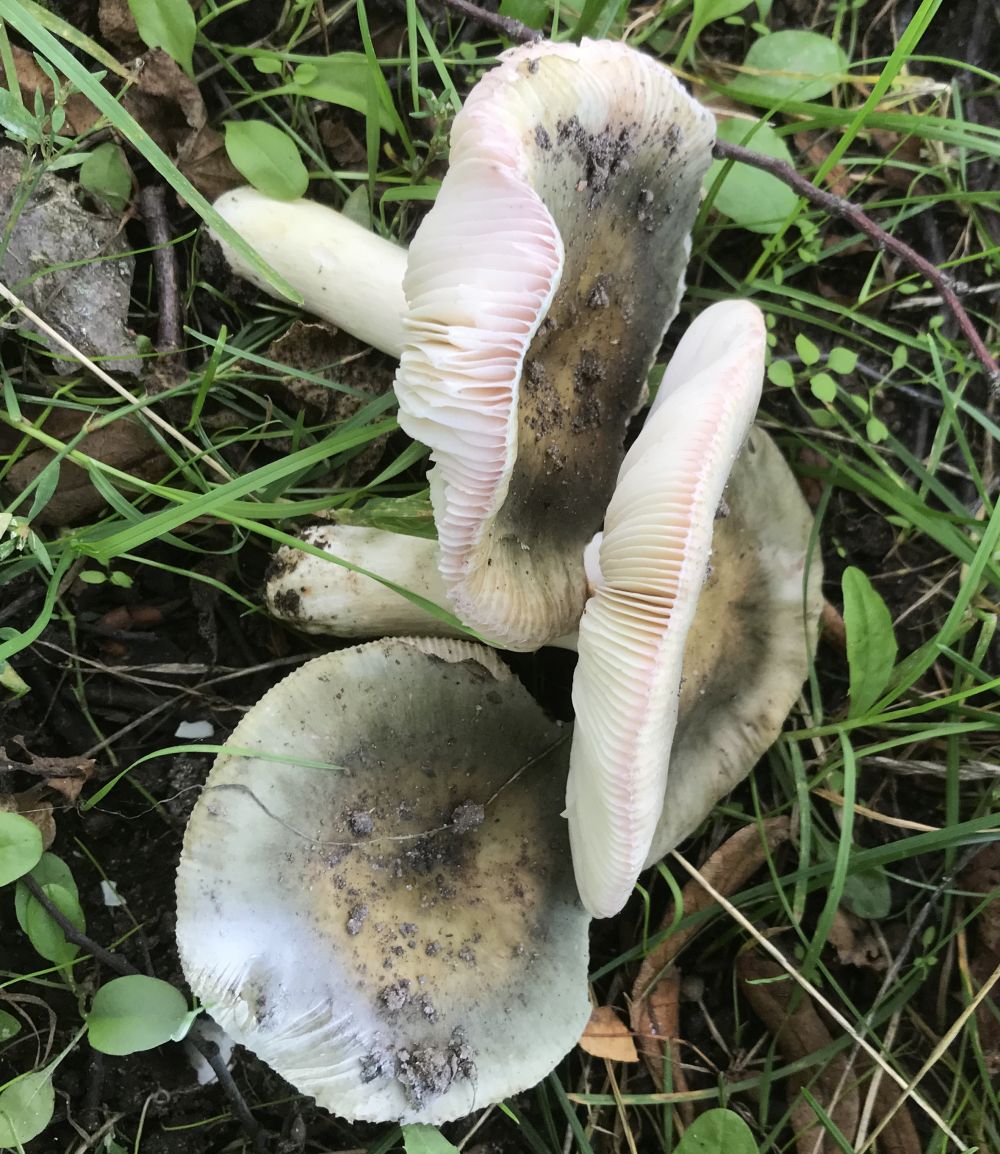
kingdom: Fungi
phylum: Basidiomycota
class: Agaricomycetes
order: Russulales
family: Russulaceae
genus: Russula
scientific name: Russula
